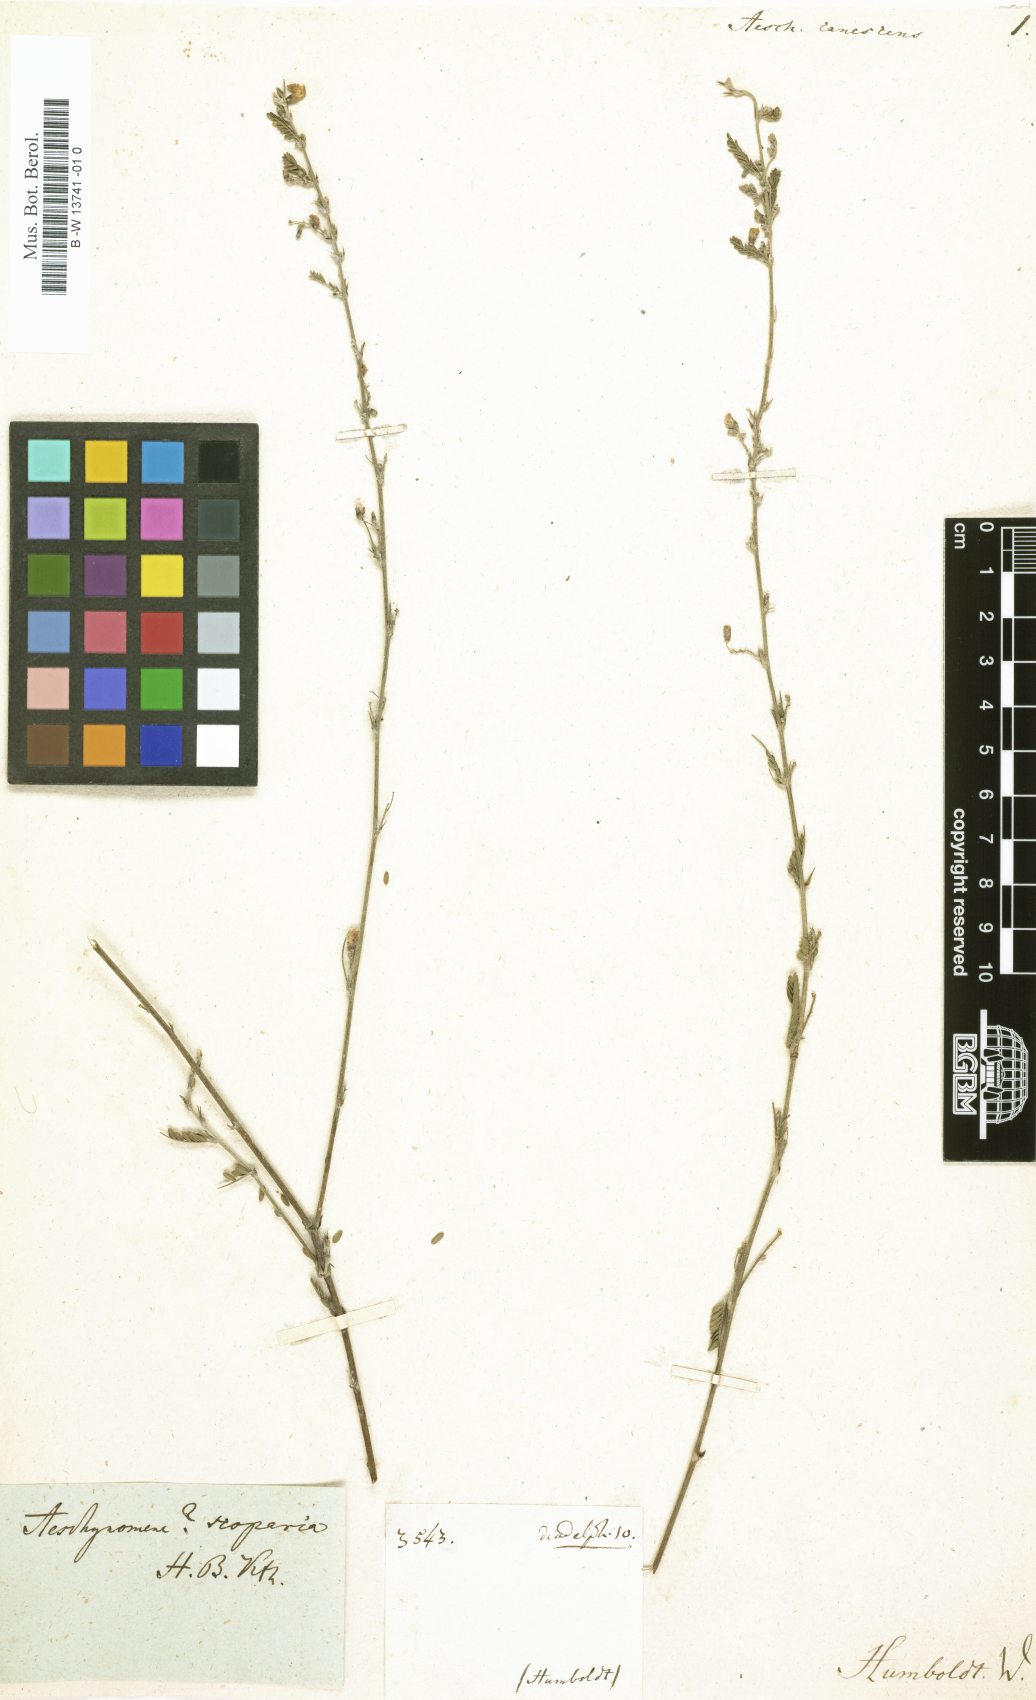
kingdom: Plantae
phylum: Tracheophyta
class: Magnoliopsida
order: Fabales
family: Fabaceae
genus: Aeschynomene
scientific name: Aeschynomene
